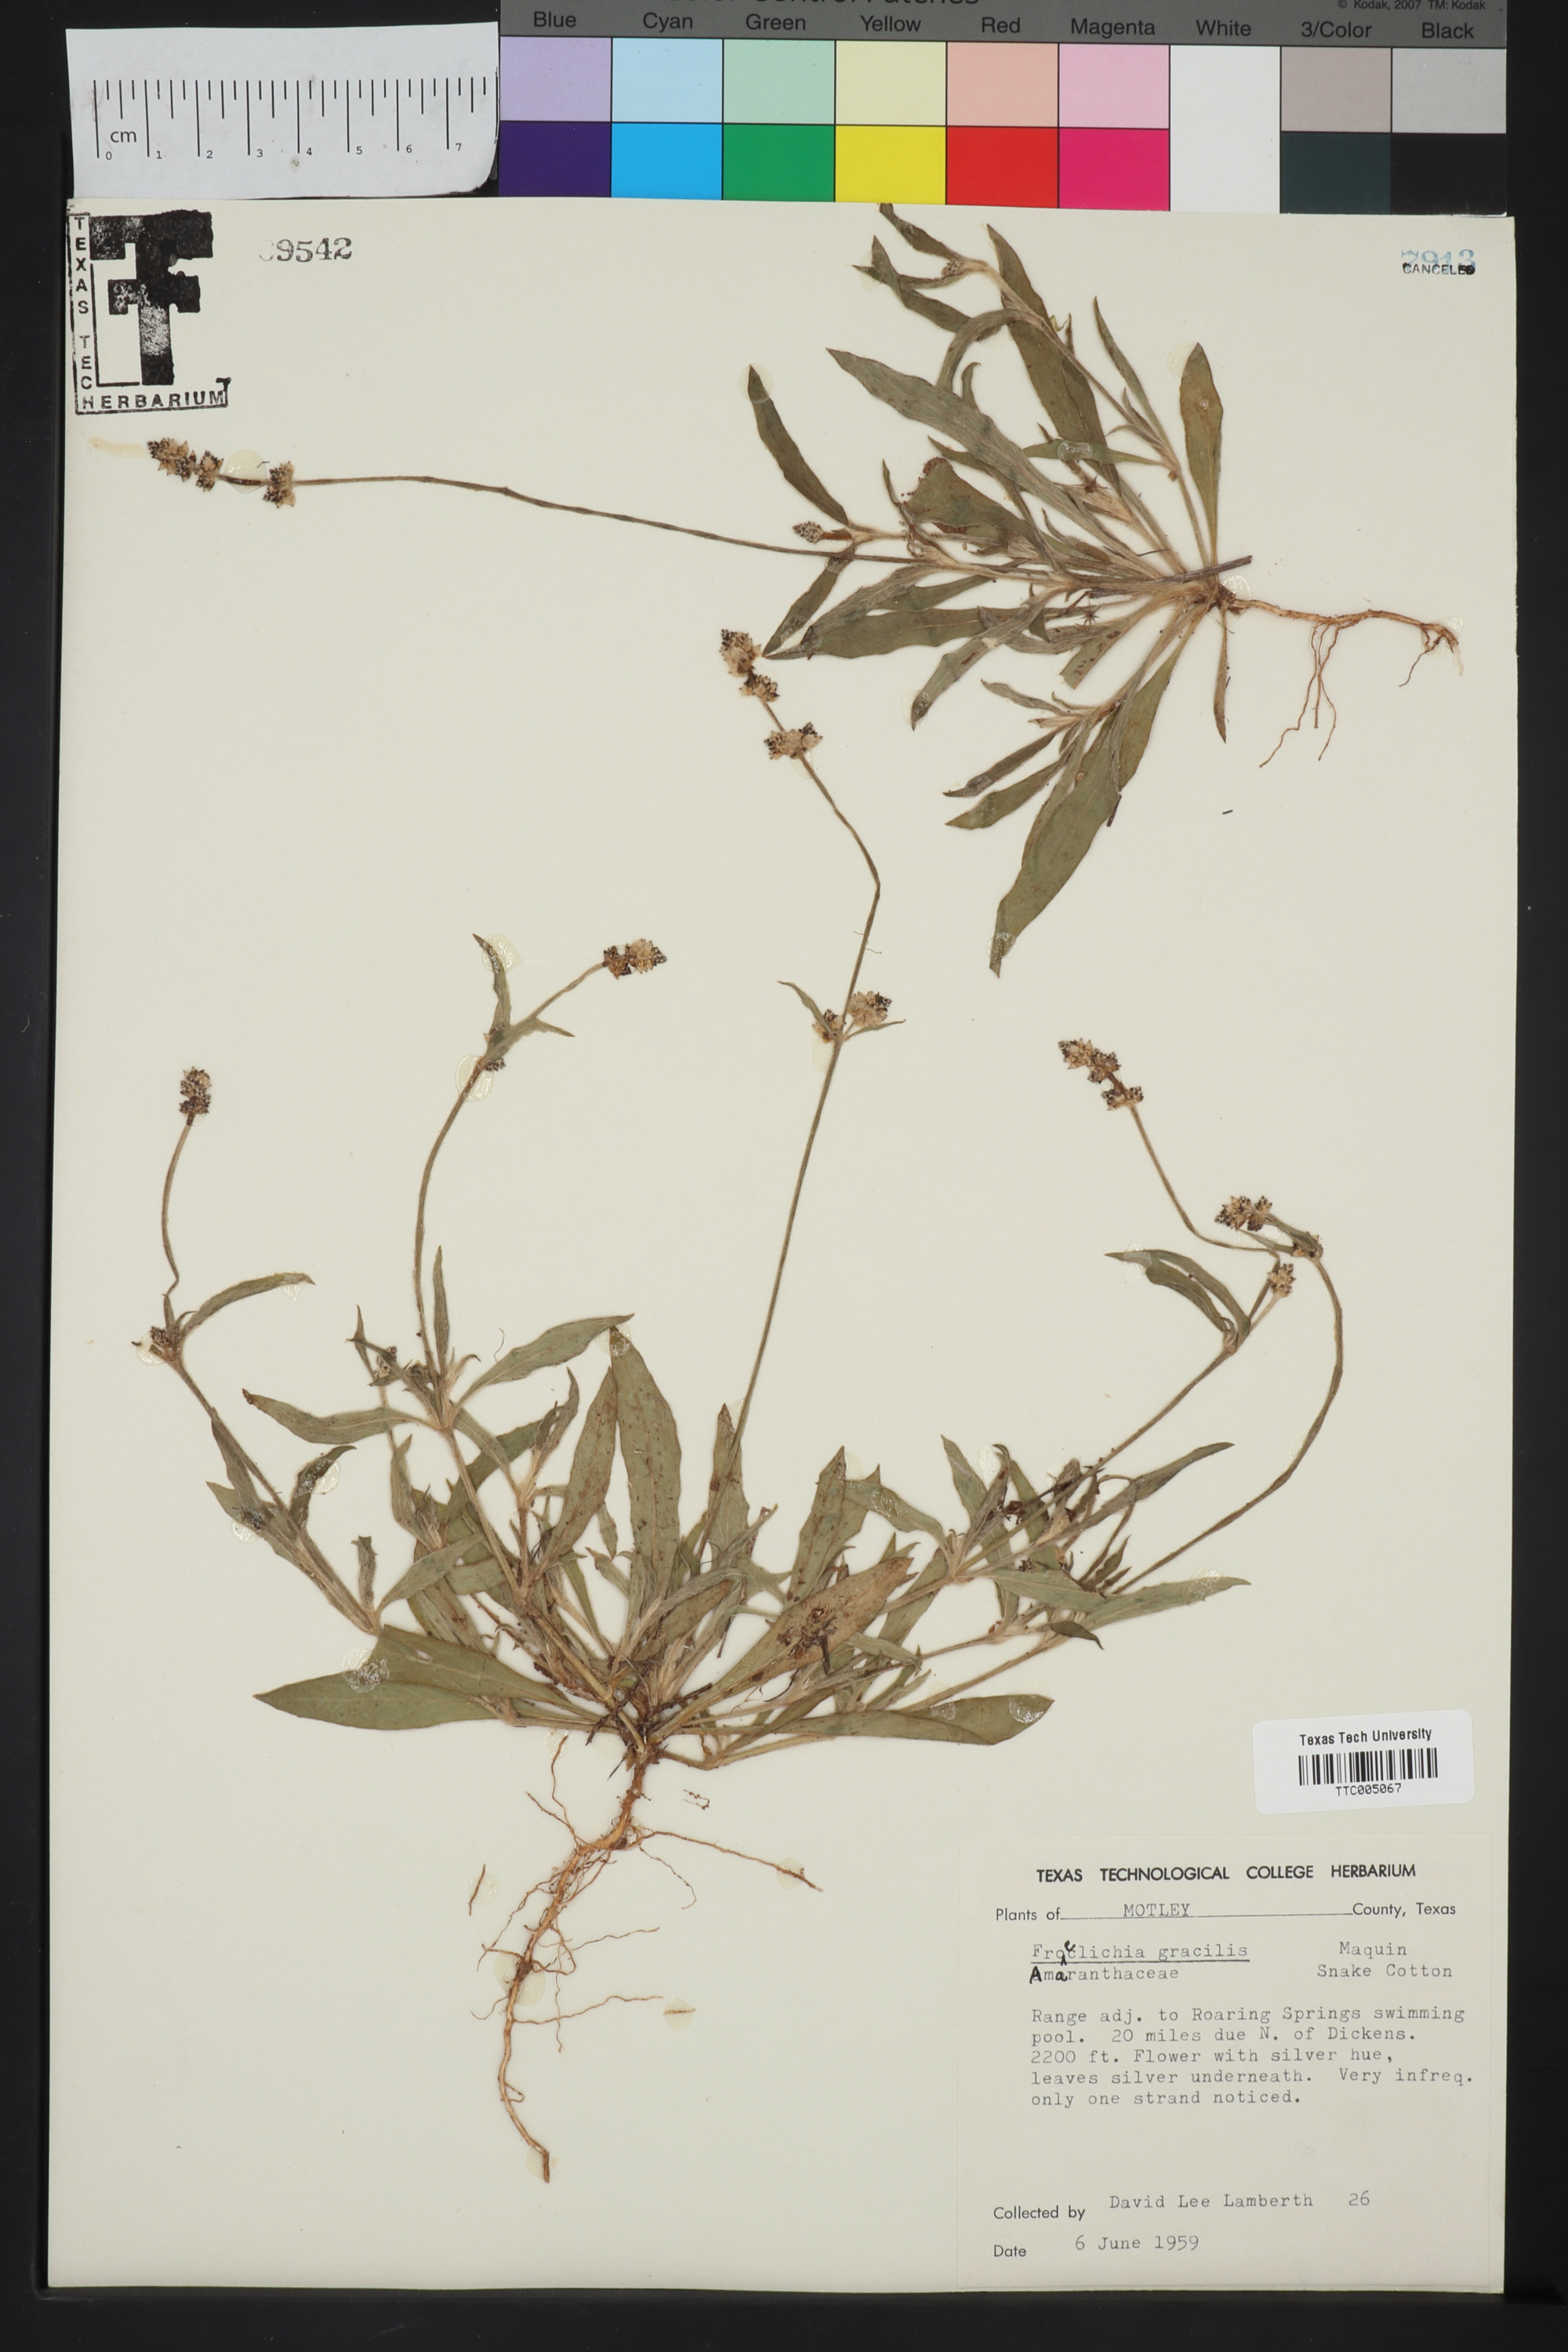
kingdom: Plantae
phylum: Tracheophyta
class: Magnoliopsida
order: Caryophyllales
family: Amaranthaceae
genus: Froelichia
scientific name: Froelichia gracilis
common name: Slender cottonweed
